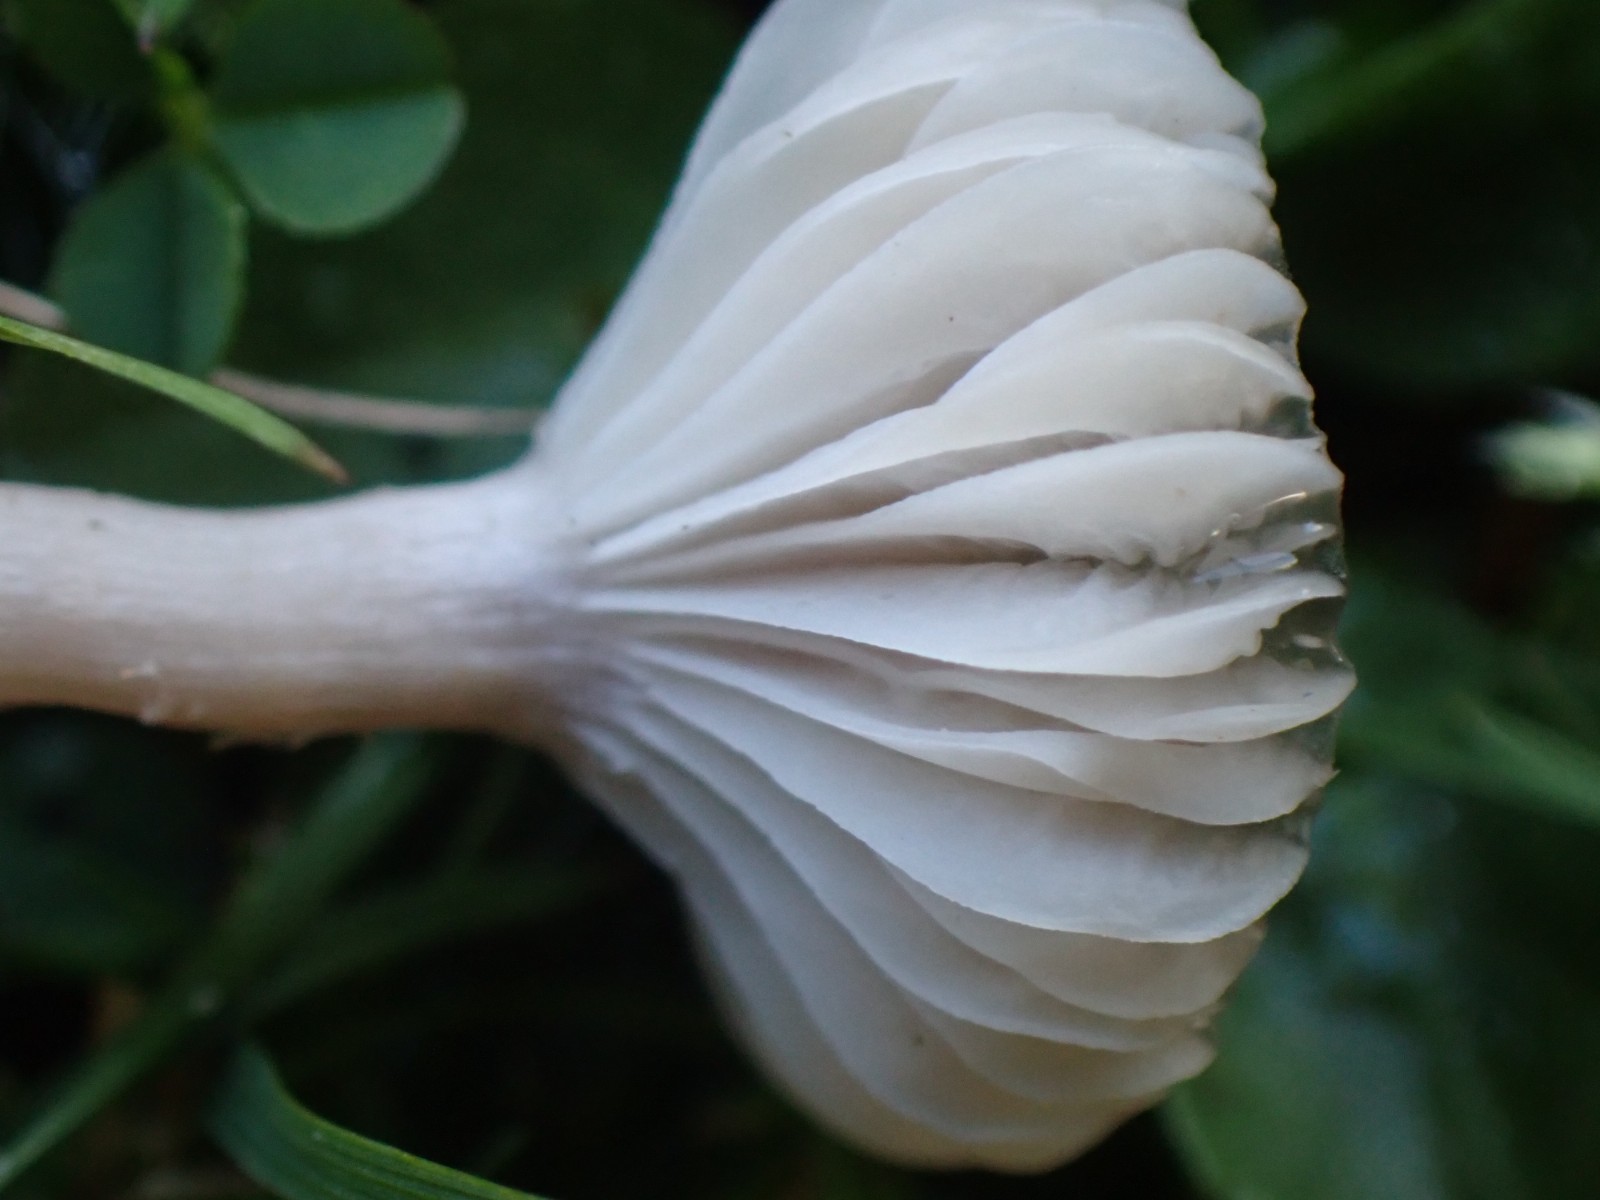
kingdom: Fungi
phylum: Basidiomycota
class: Agaricomycetes
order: Agaricales
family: Hygrophoraceae
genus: Cuphophyllus
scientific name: Cuphophyllus
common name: vokshat
